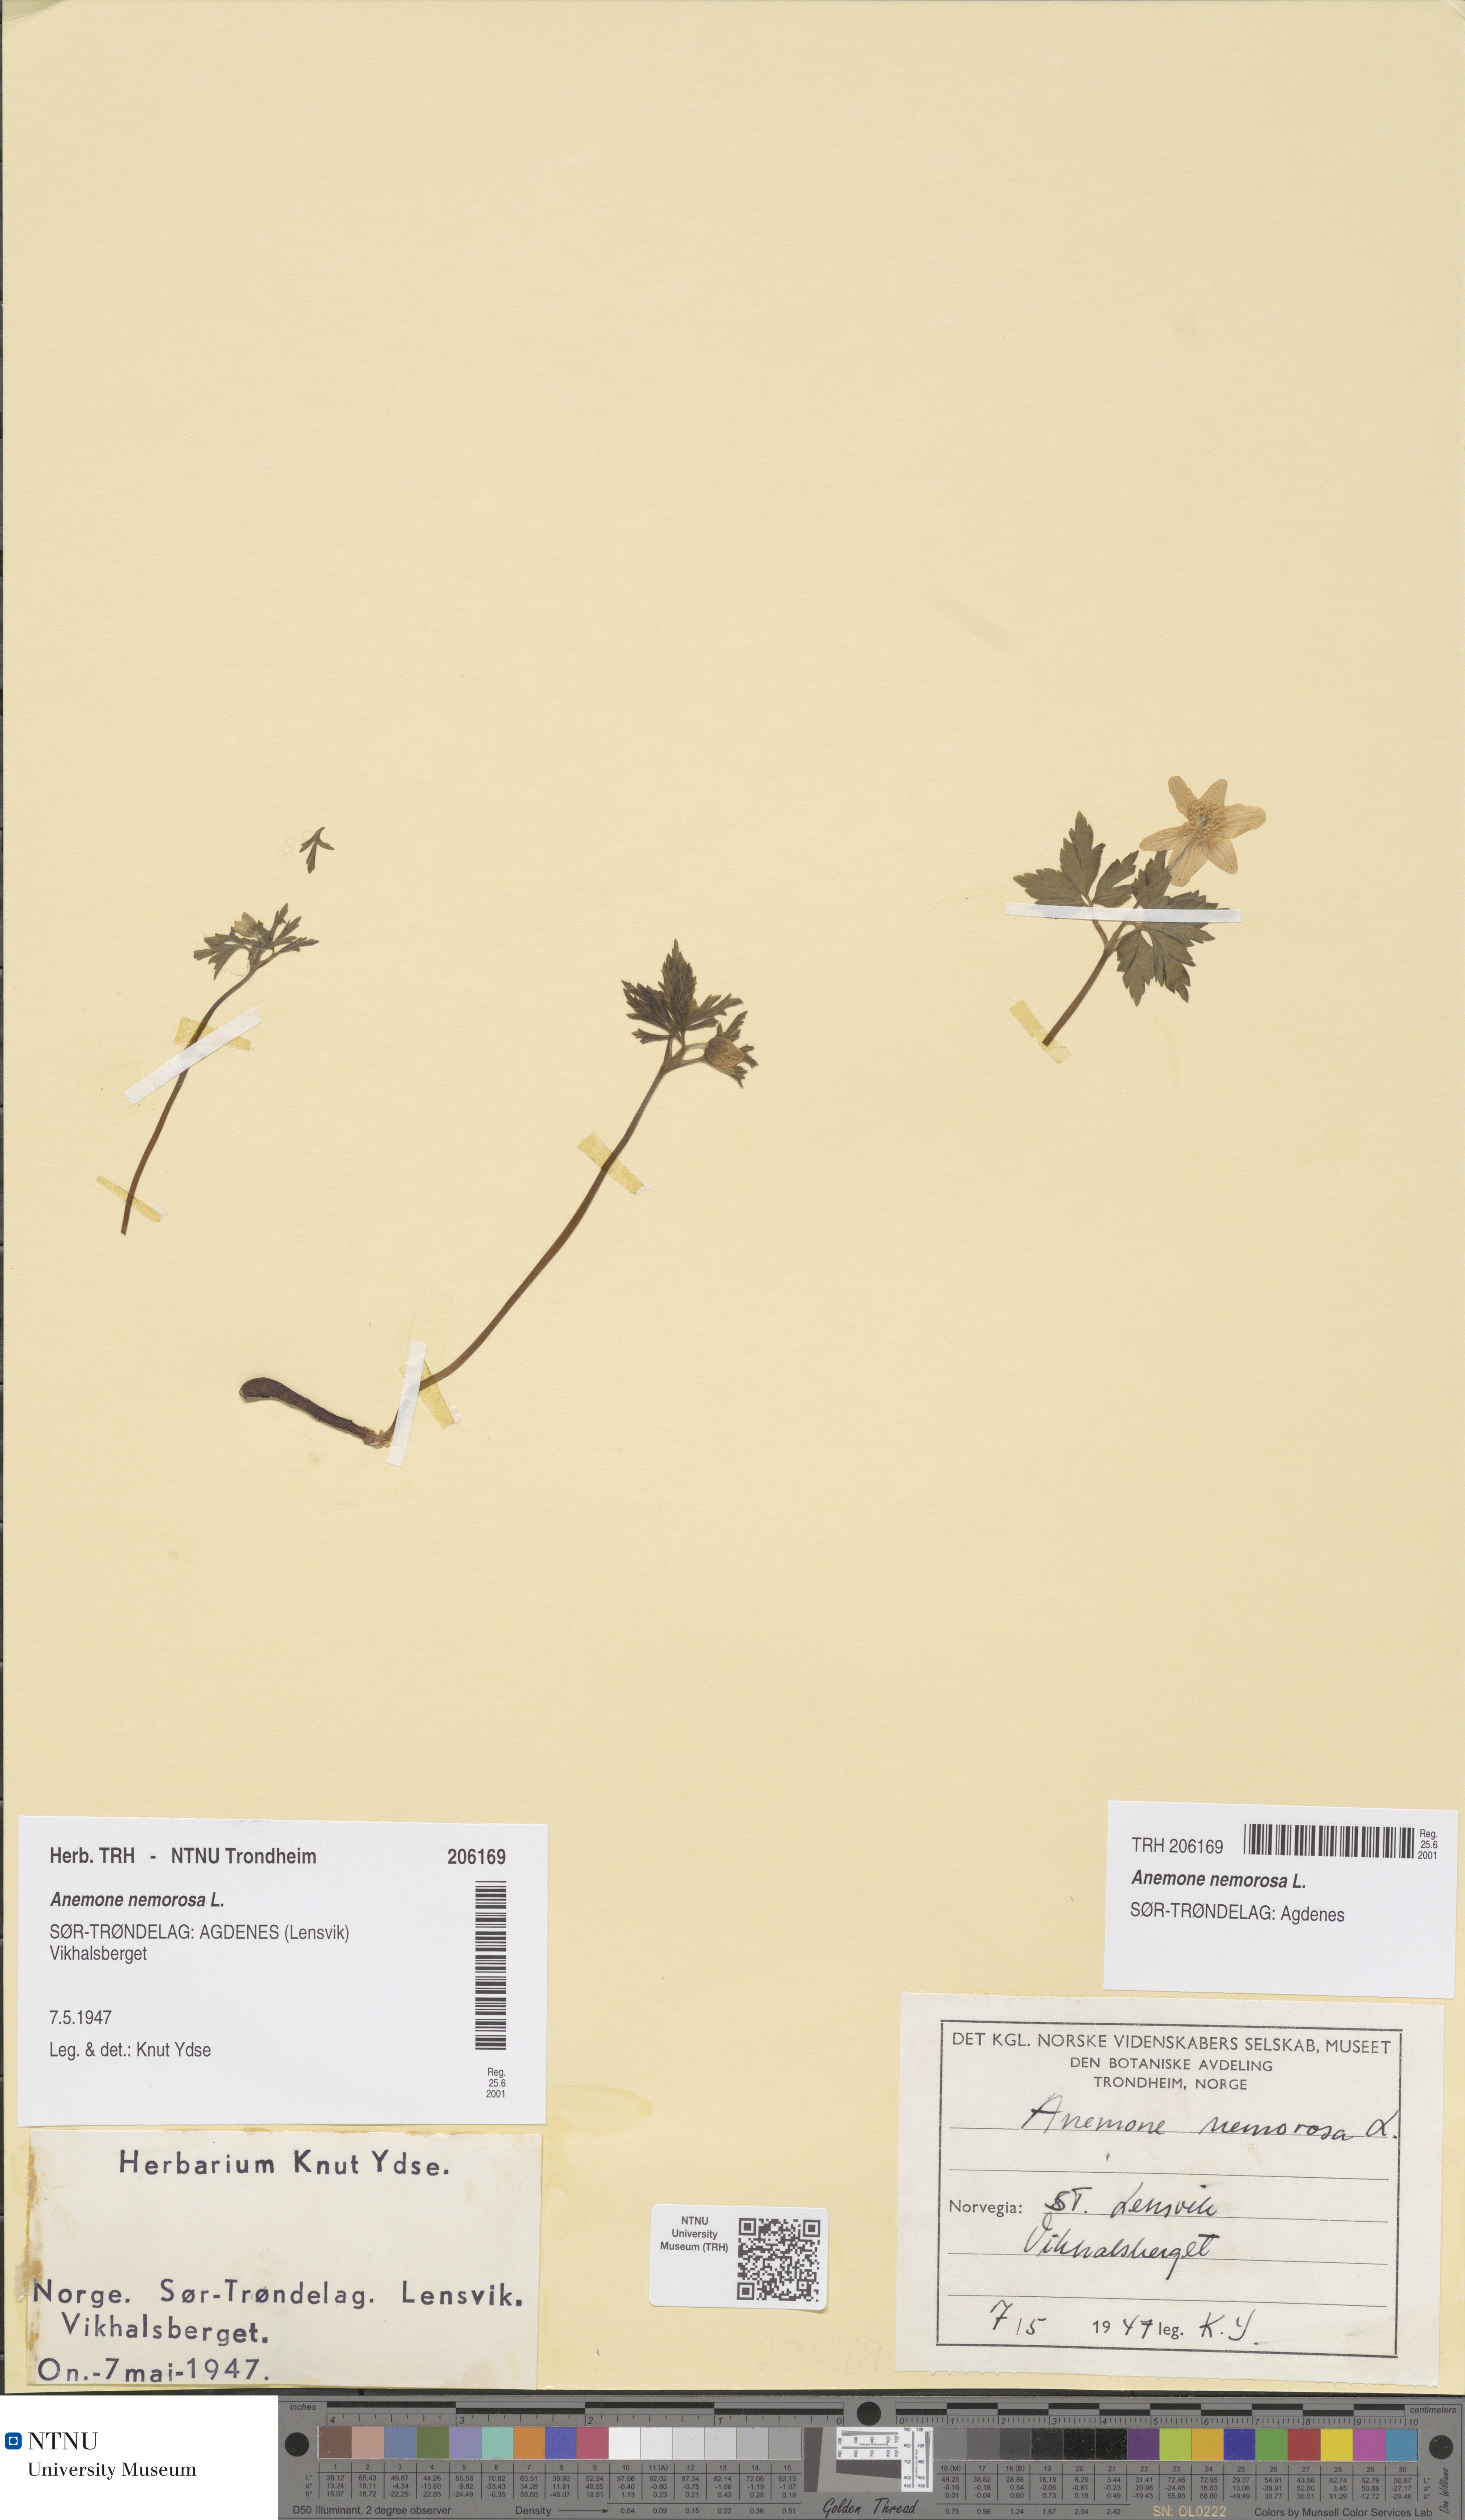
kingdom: Plantae
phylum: Tracheophyta
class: Magnoliopsida
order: Ranunculales
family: Ranunculaceae
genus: Anemone
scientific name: Anemone nemorosa
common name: Wood anemone
